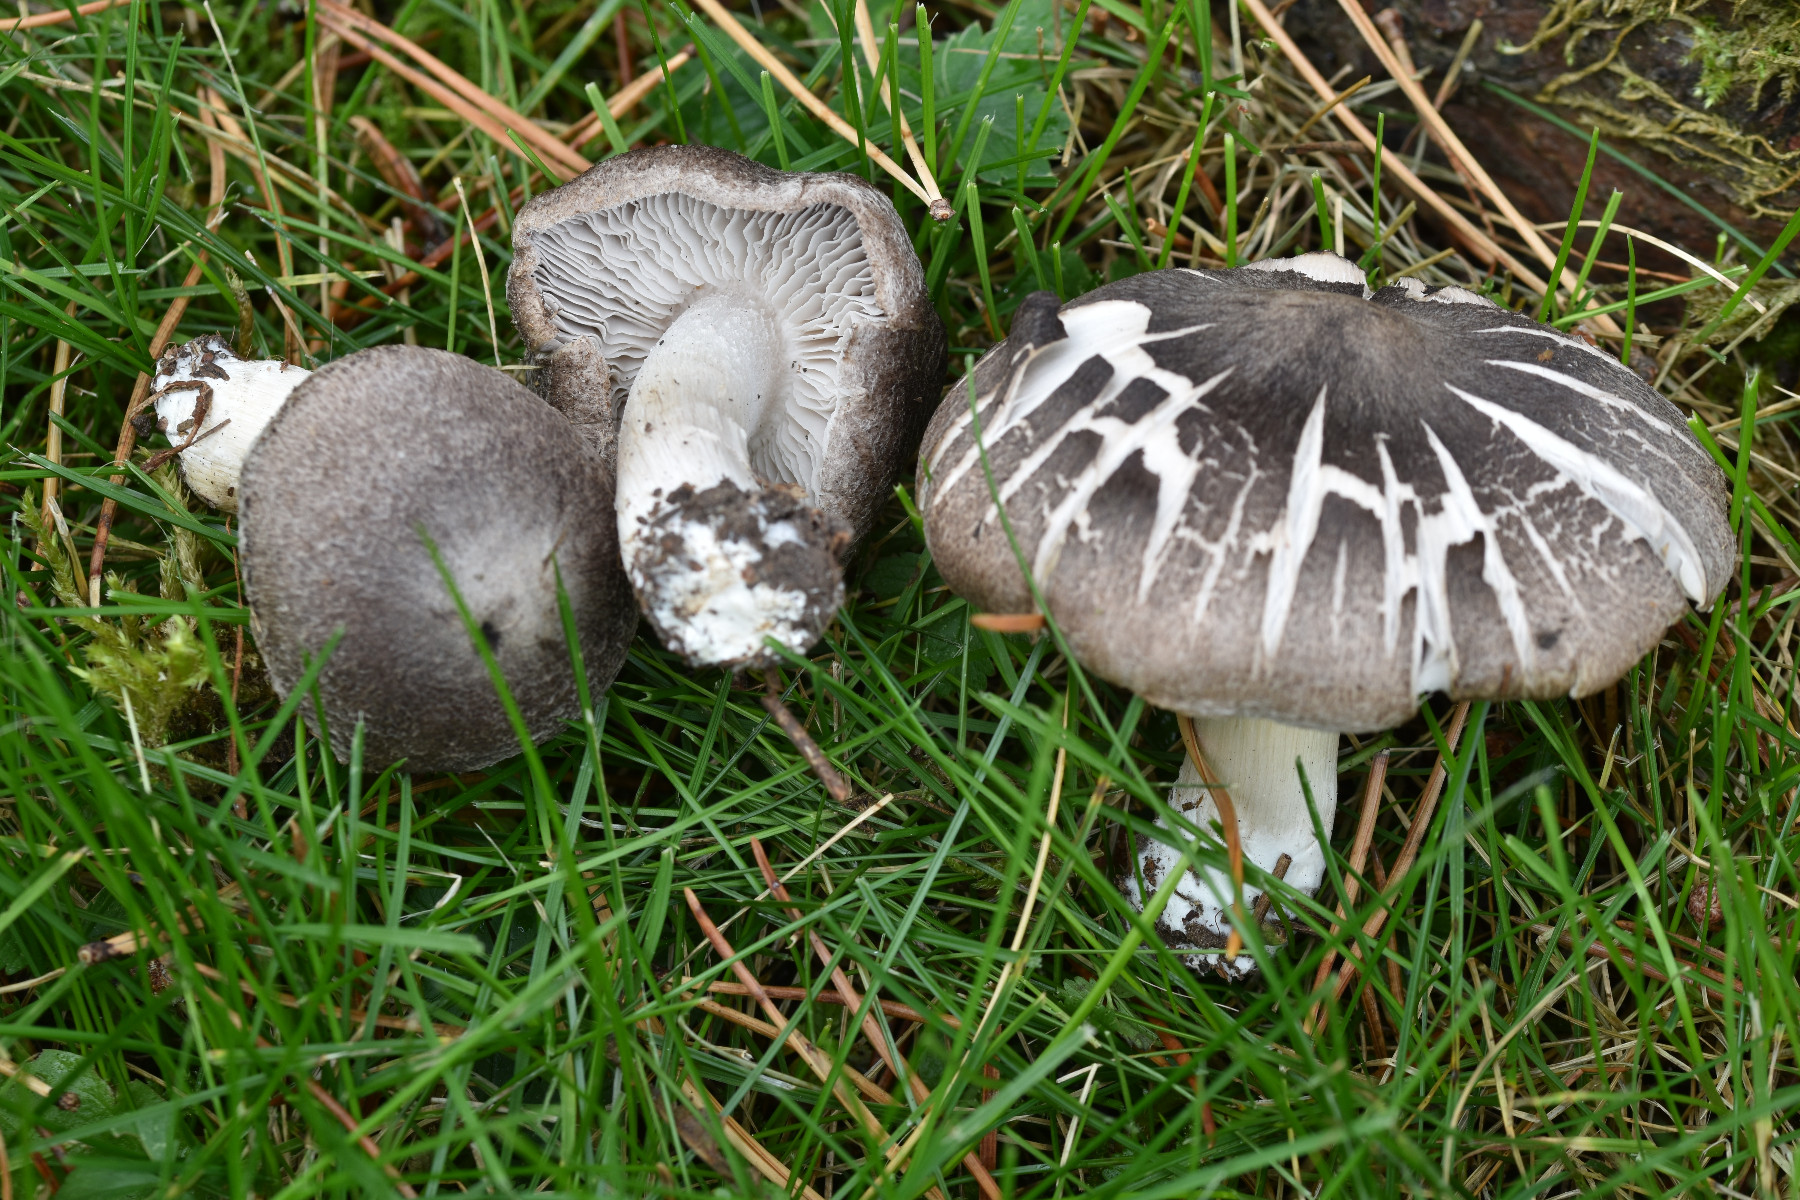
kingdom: Fungi
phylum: Basidiomycota
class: Agaricomycetes
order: Agaricales
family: Tricholomataceae
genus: Tricholoma
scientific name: Tricholoma terreum
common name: jordfarvet ridderhat
